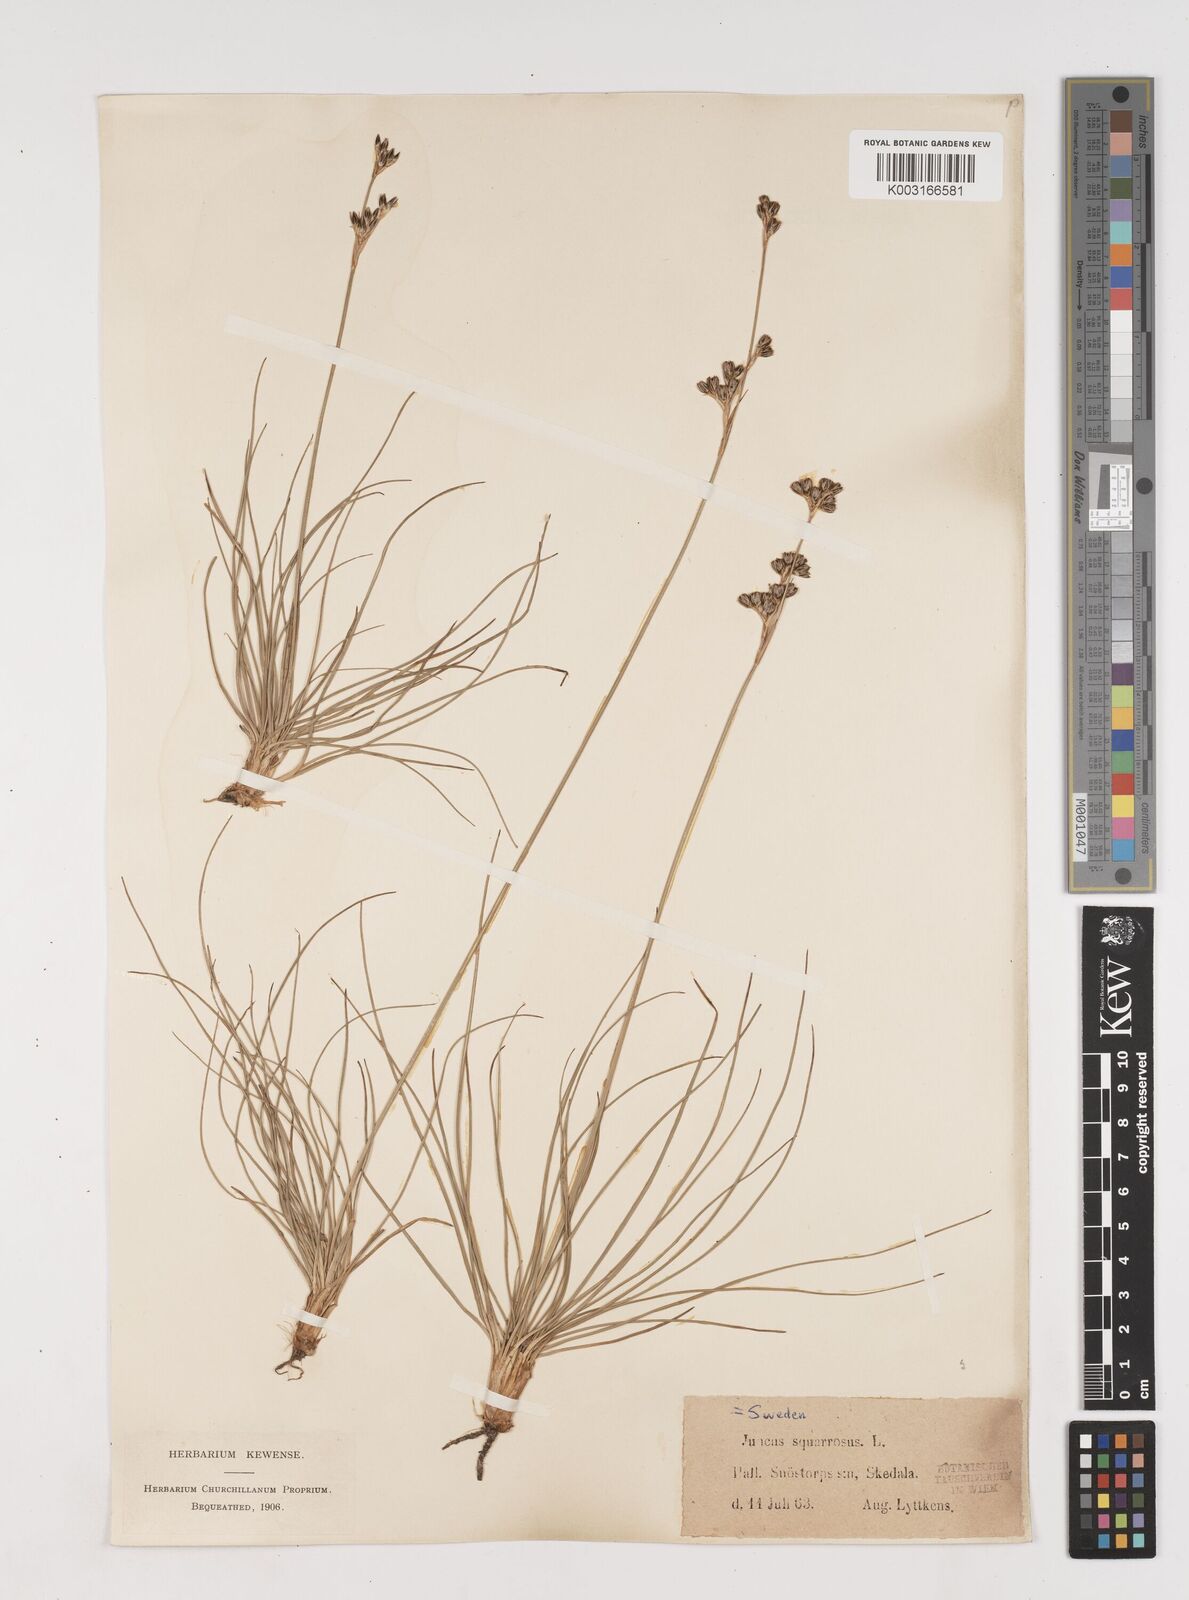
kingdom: Plantae
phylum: Tracheophyta
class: Liliopsida
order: Poales
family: Juncaceae
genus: Juncus
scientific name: Juncus squarrosus
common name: Heath rush
